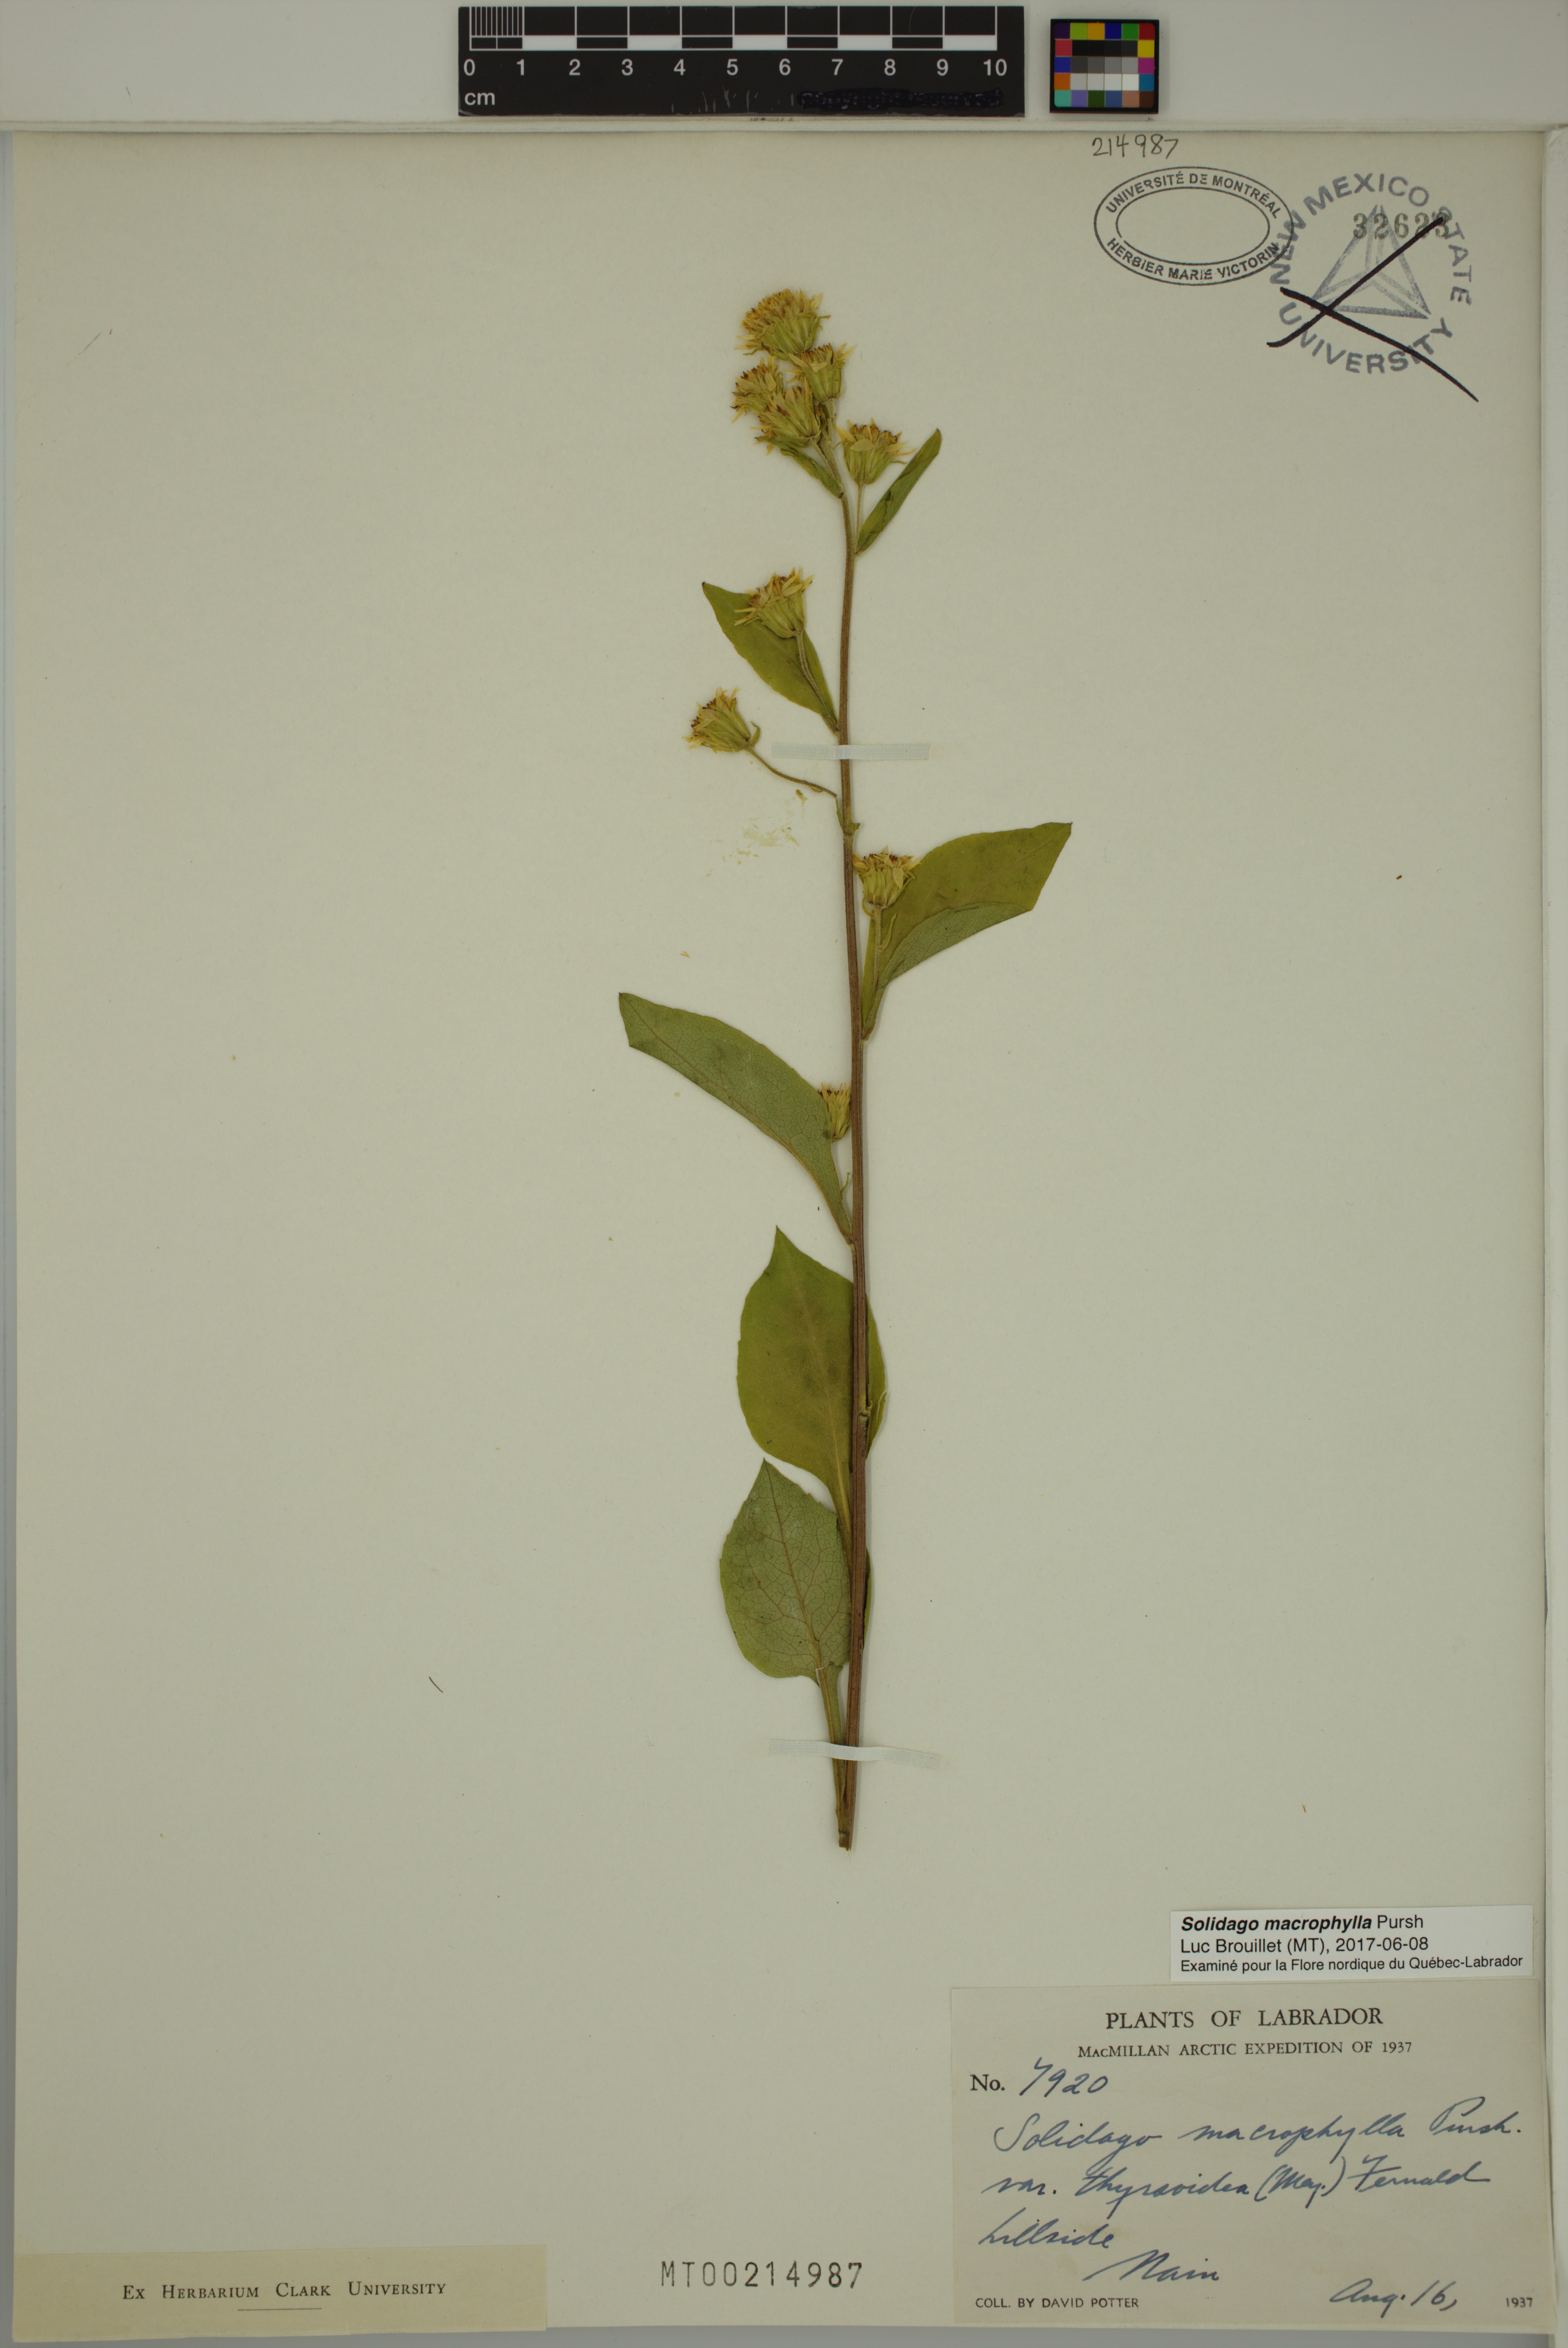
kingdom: Plantae
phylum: Tracheophyta
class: Magnoliopsida
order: Asterales
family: Asteraceae
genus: Solidago
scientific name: Solidago macrophylla
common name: Large-leaved goldenrod
